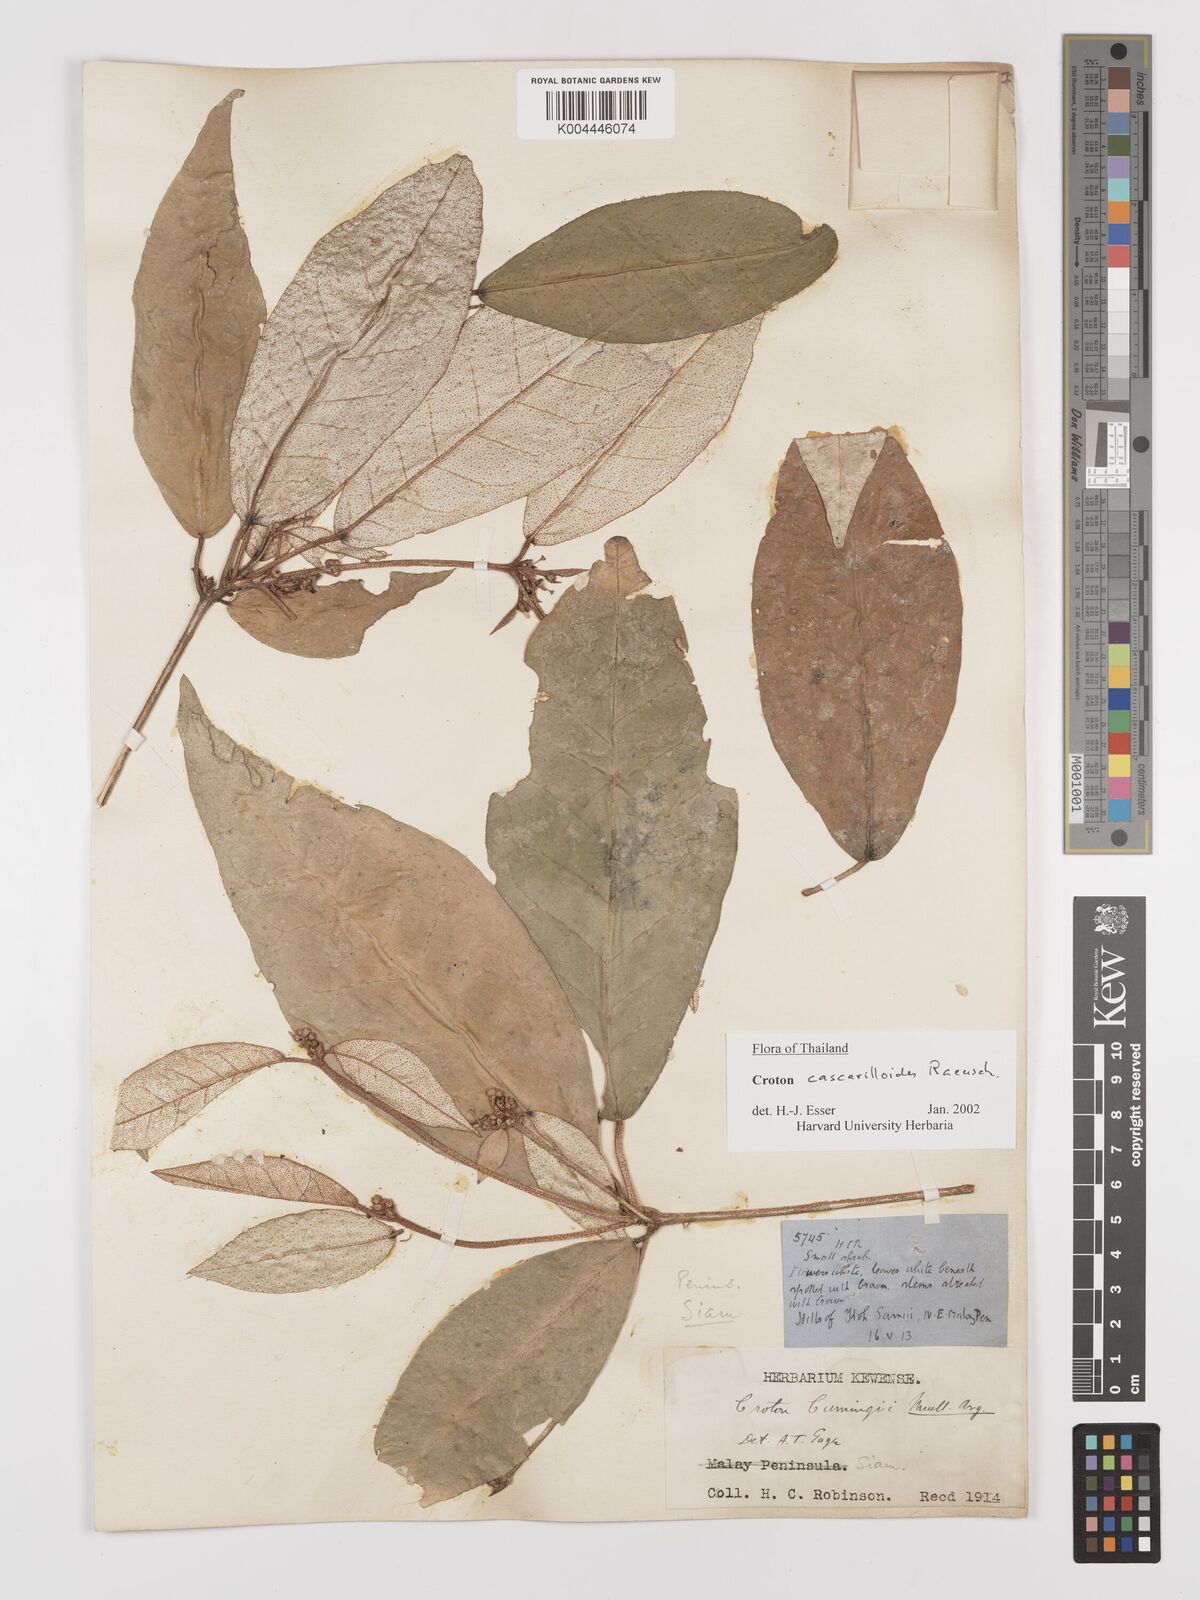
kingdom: Plantae
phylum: Tracheophyta
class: Magnoliopsida
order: Malpighiales
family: Euphorbiaceae
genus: Croton
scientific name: Croton cascarilloides
